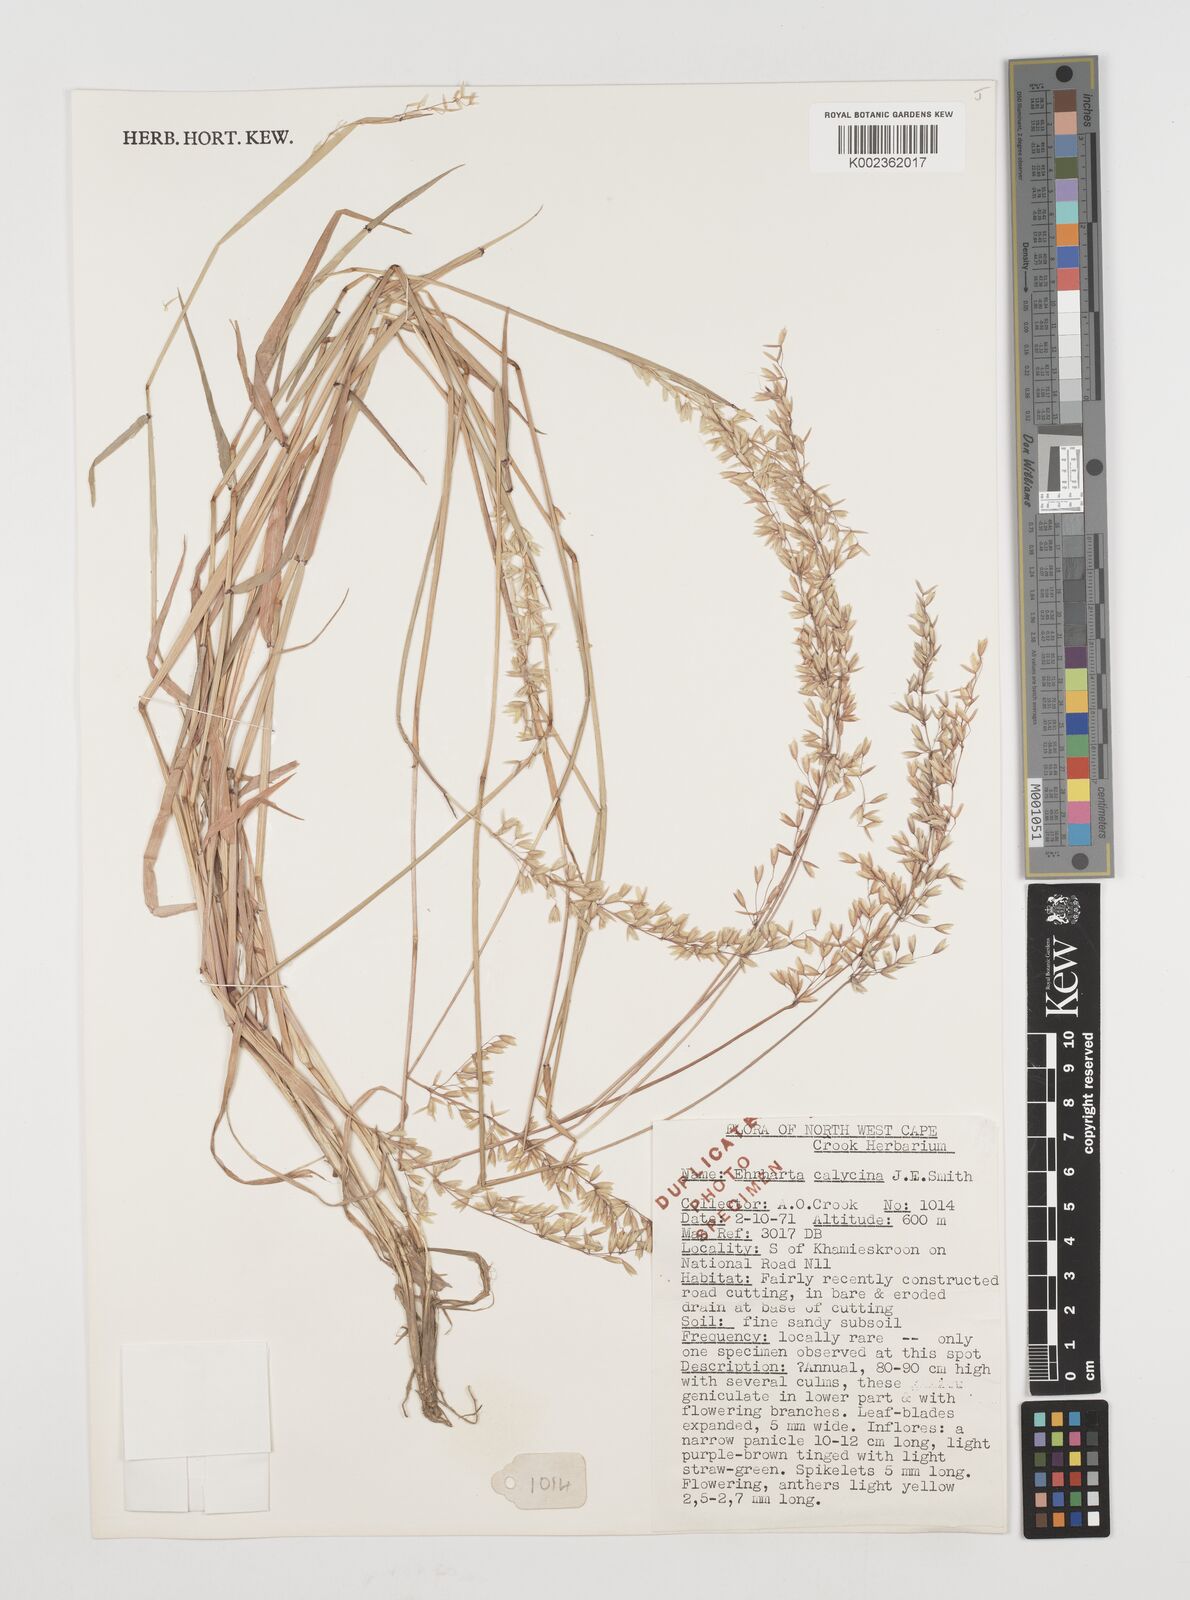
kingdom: Plantae
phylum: Tracheophyta
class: Liliopsida
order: Poales
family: Poaceae
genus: Ehrharta
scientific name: Ehrharta calycina
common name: Perennial veldtgrass
